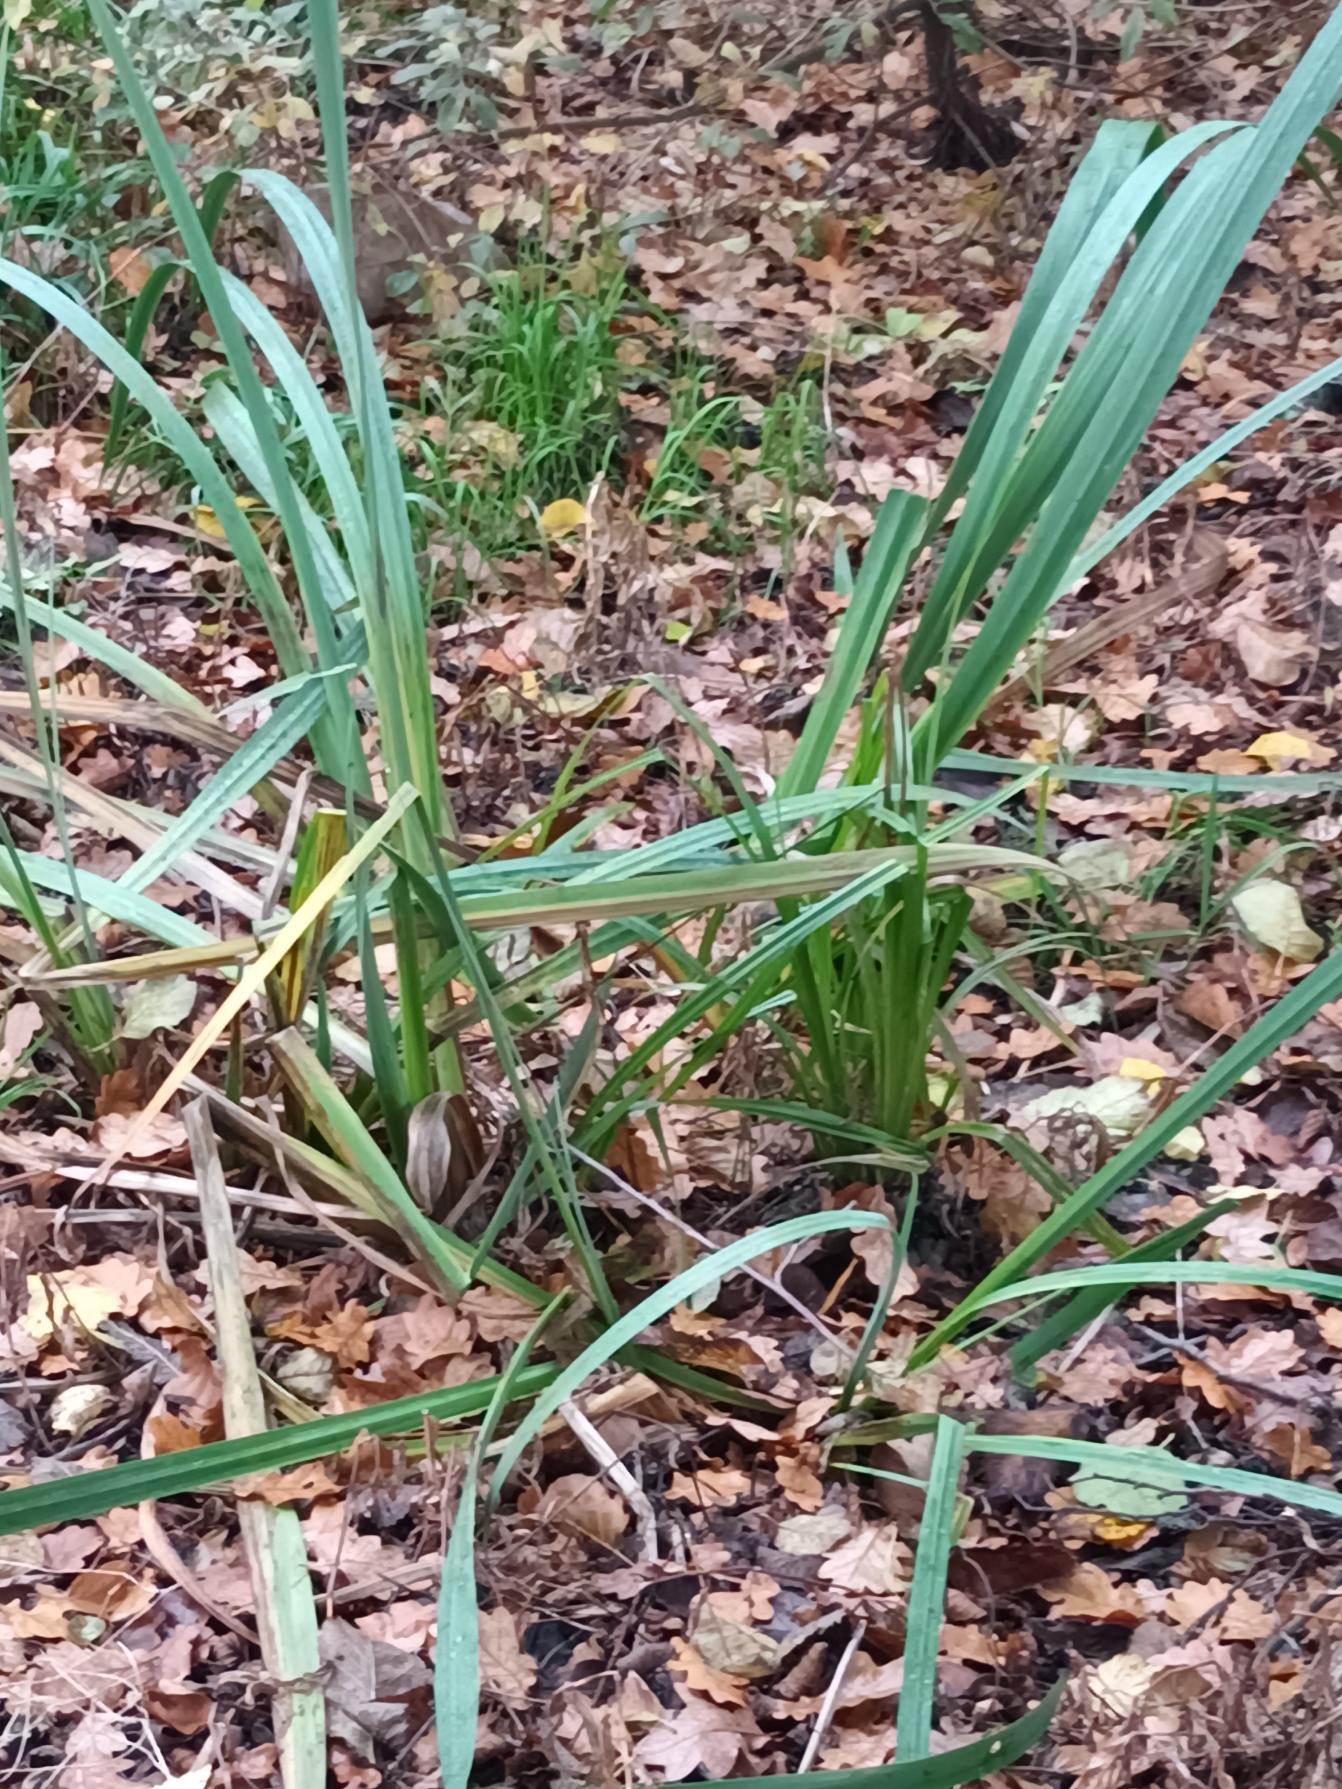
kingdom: Plantae
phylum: Tracheophyta
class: Liliopsida
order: Asparagales
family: Iridaceae
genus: Iris
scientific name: Iris pseudacorus
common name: Gul iris
